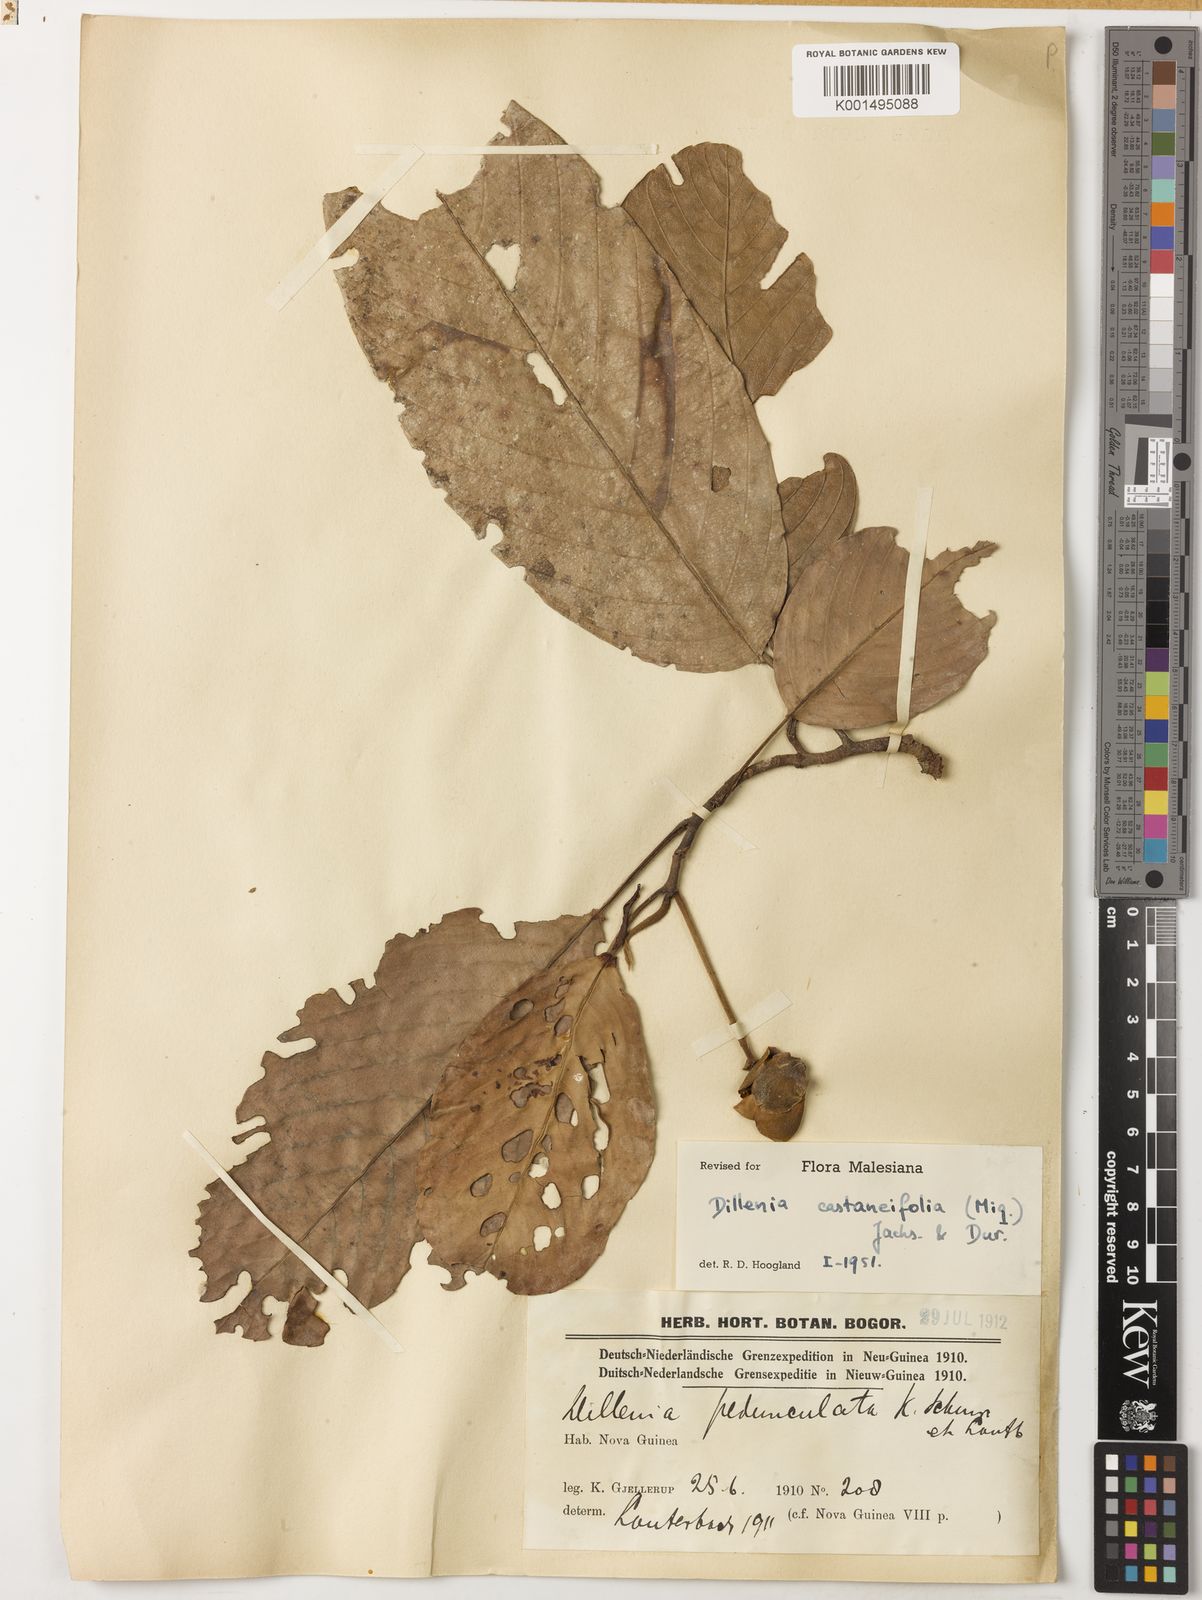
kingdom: Plantae
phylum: Tracheophyta
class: Magnoliopsida
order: Dilleniales
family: Dilleniaceae
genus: Dillenia
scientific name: Dillenia castaneifolia
